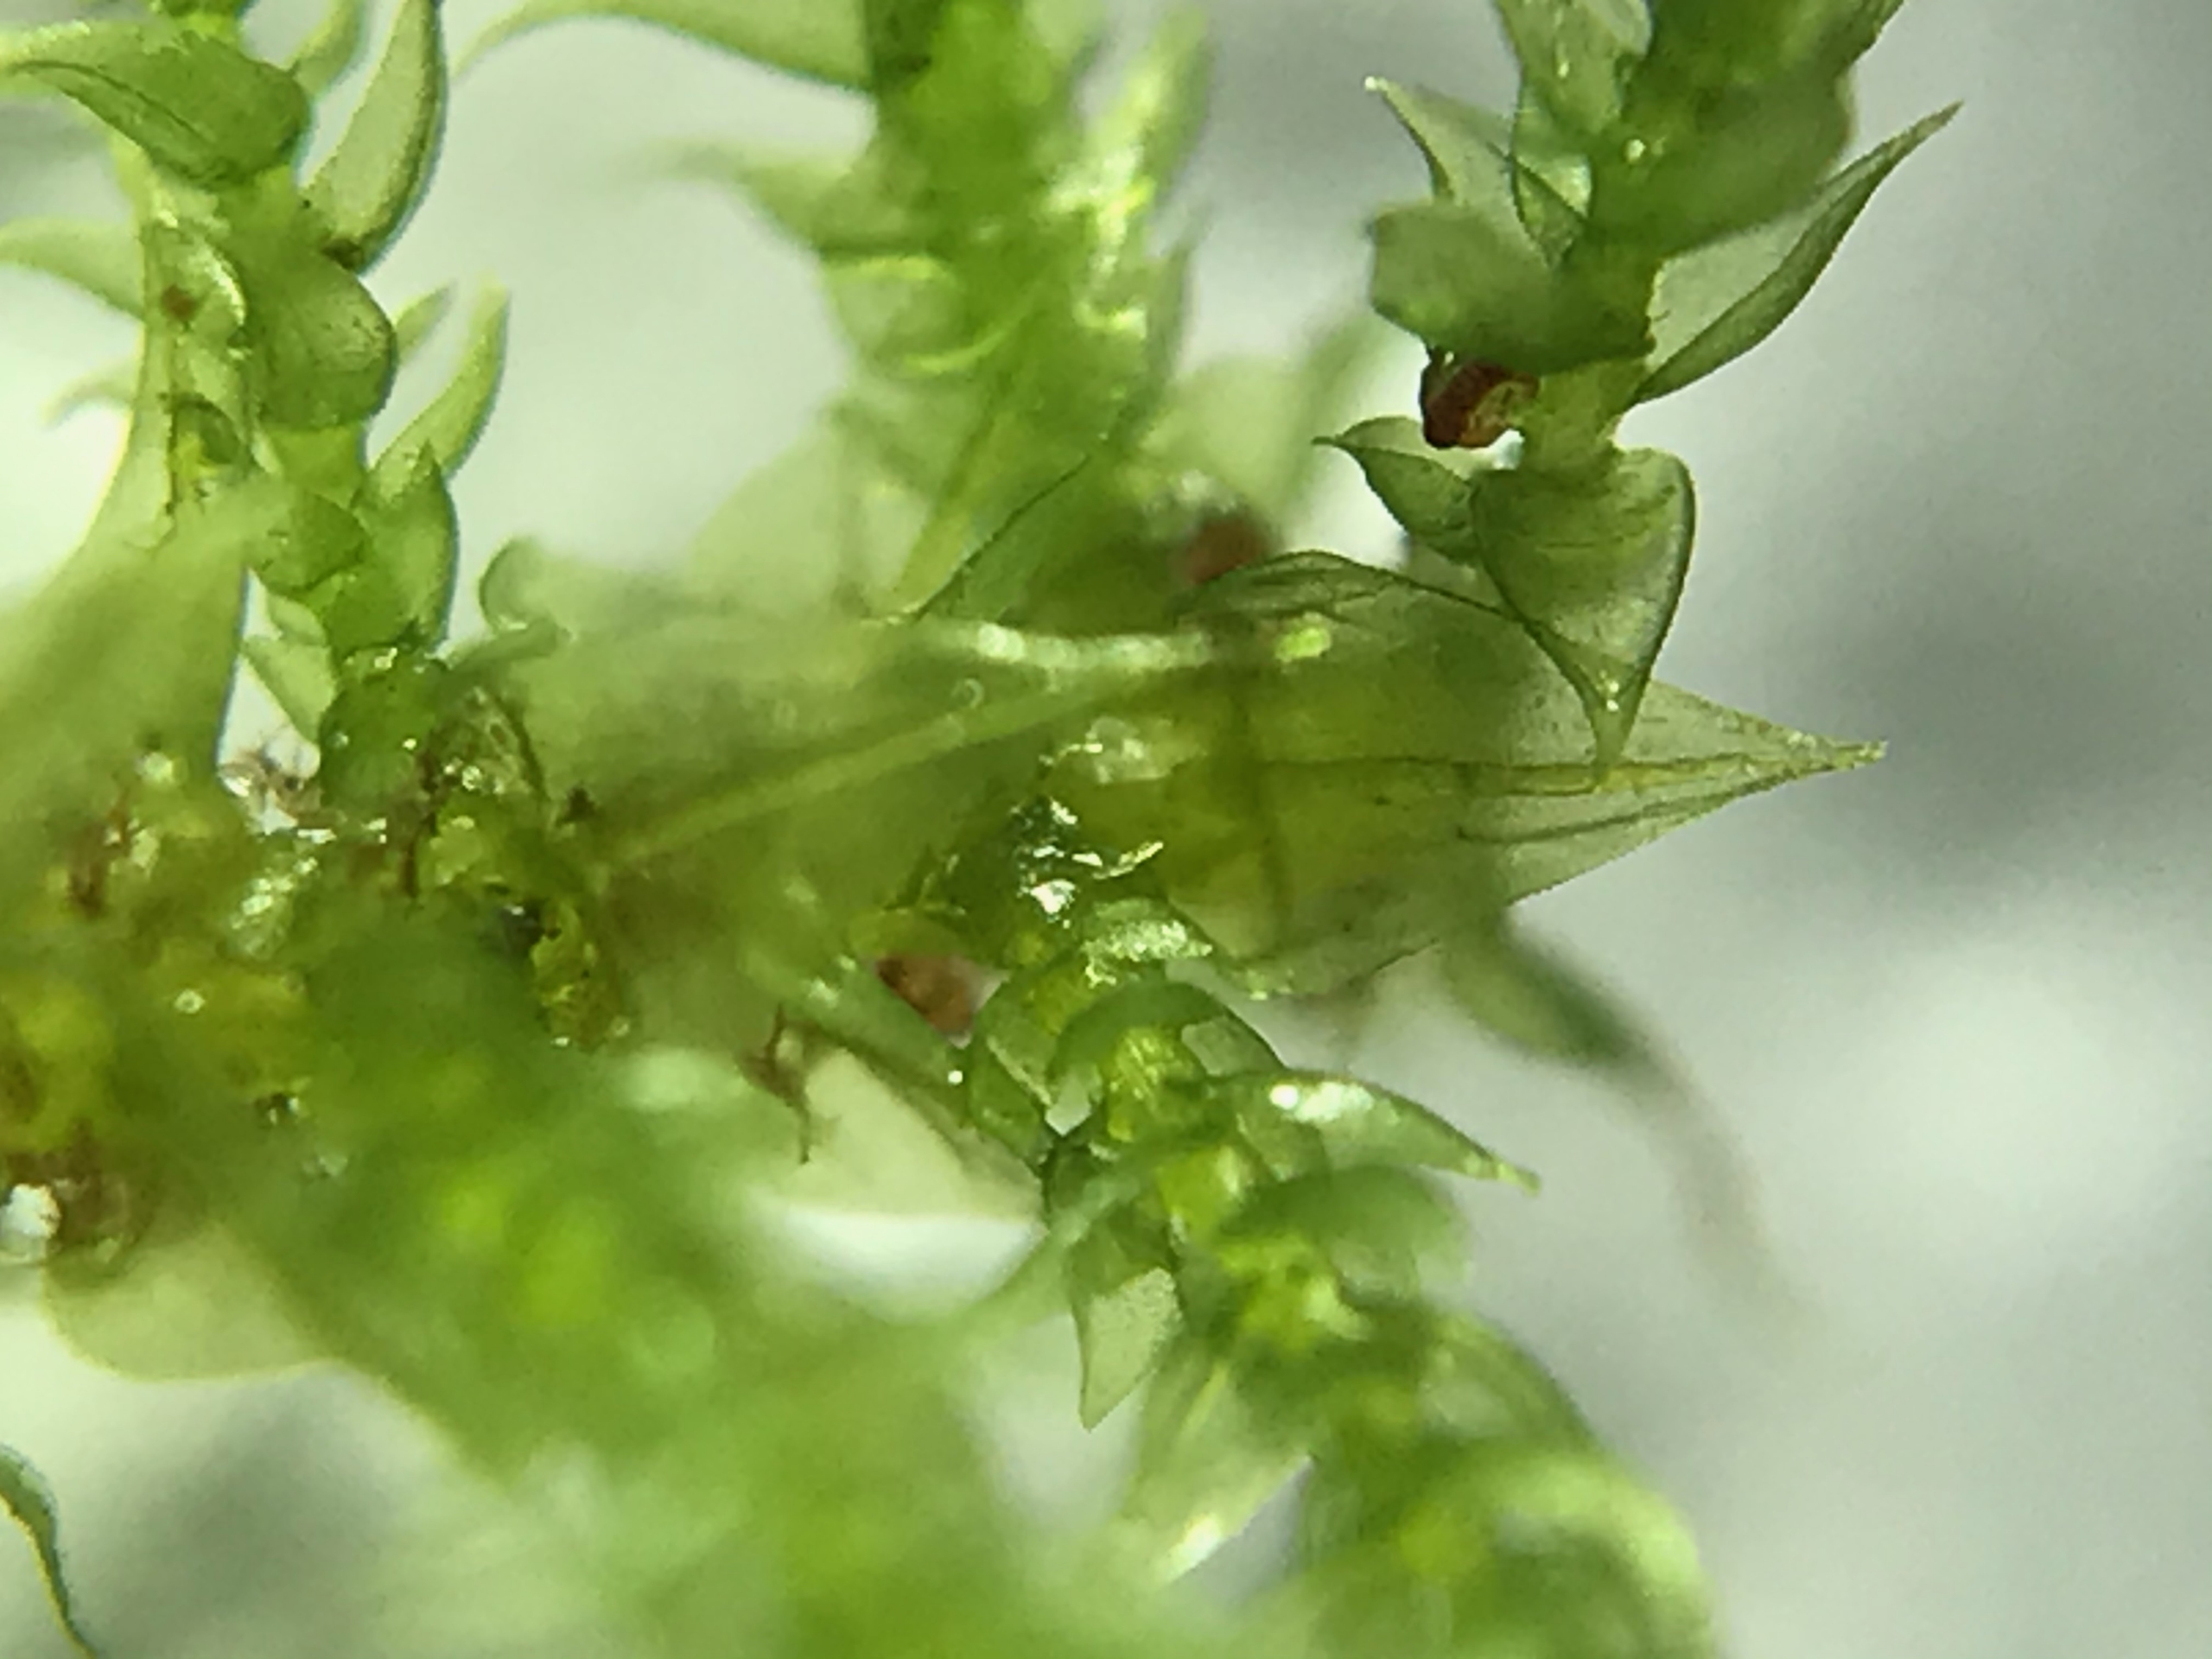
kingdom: Plantae
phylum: Bryophyta
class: Bryopsida
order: Hypnales
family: Amblystegiaceae
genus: Cratoneuron
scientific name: Cratoneuron filicinum
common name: Grøn eremitmos
